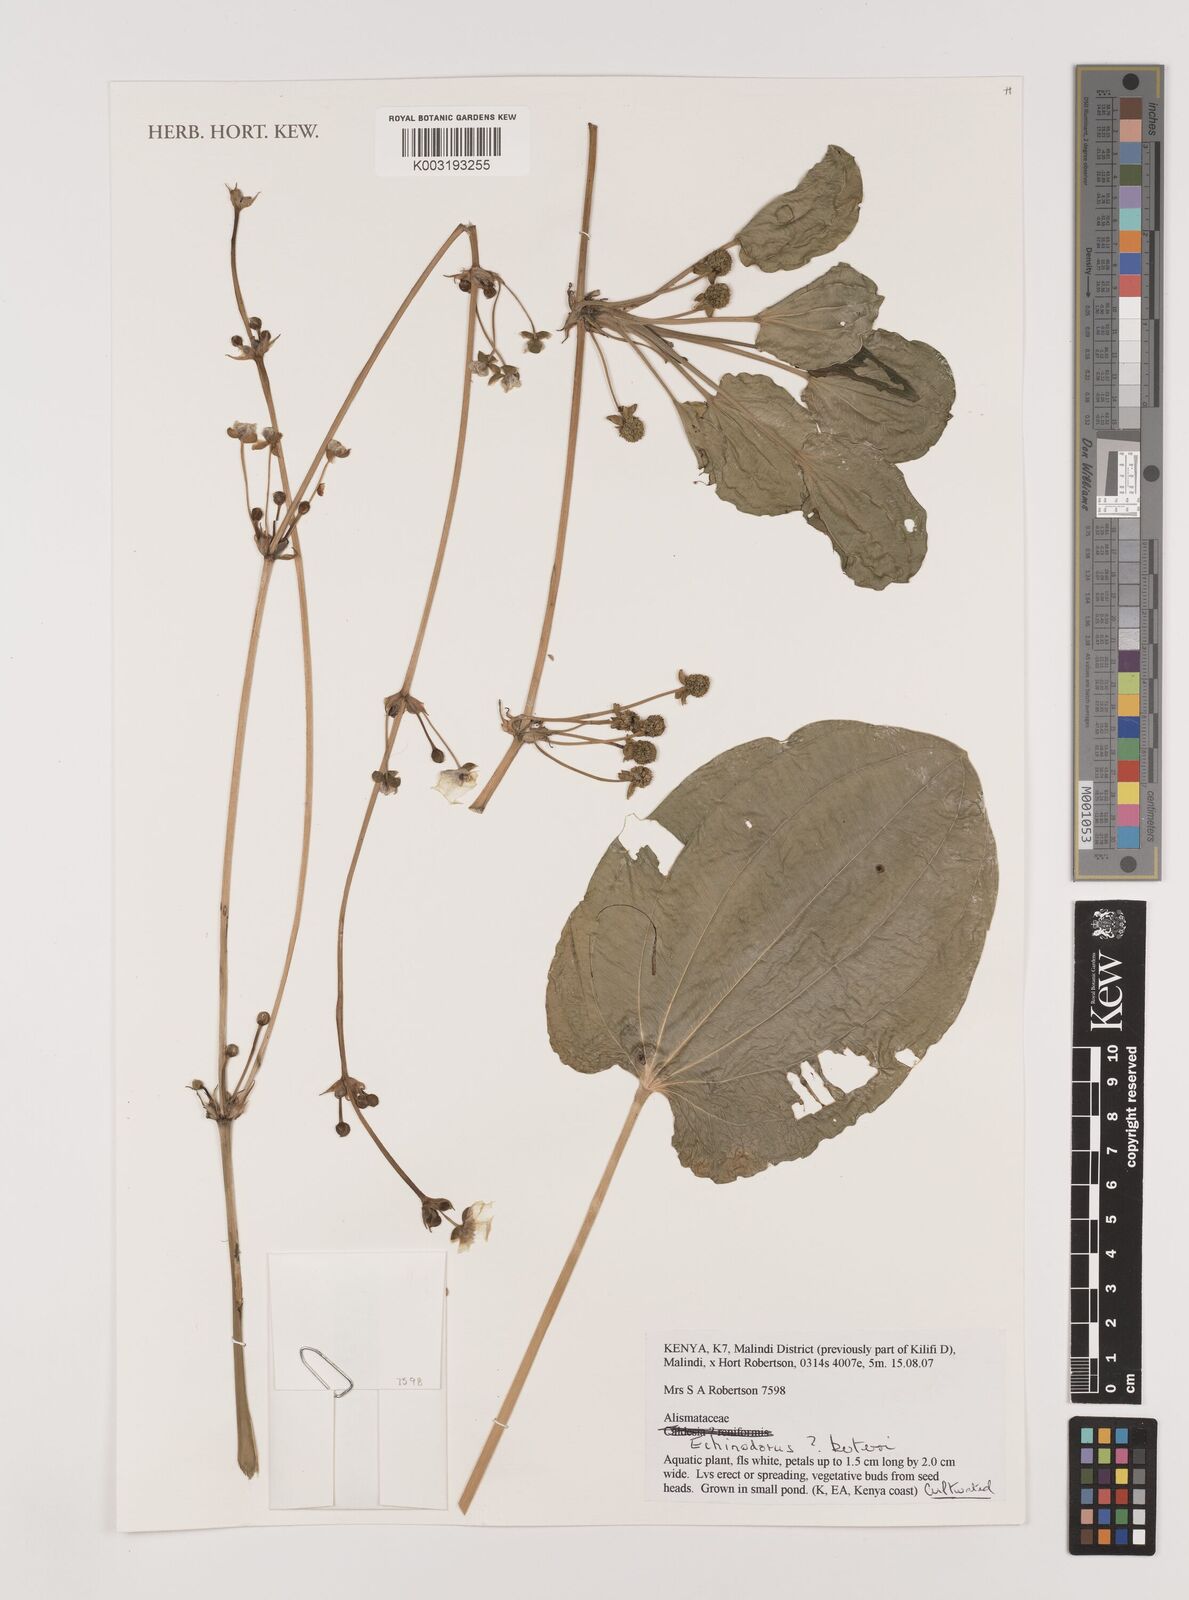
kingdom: Plantae
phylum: Tracheophyta
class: Liliopsida
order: Alismatales
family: Alismataceae
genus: Echinodorus
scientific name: Echinodorus berteroi
